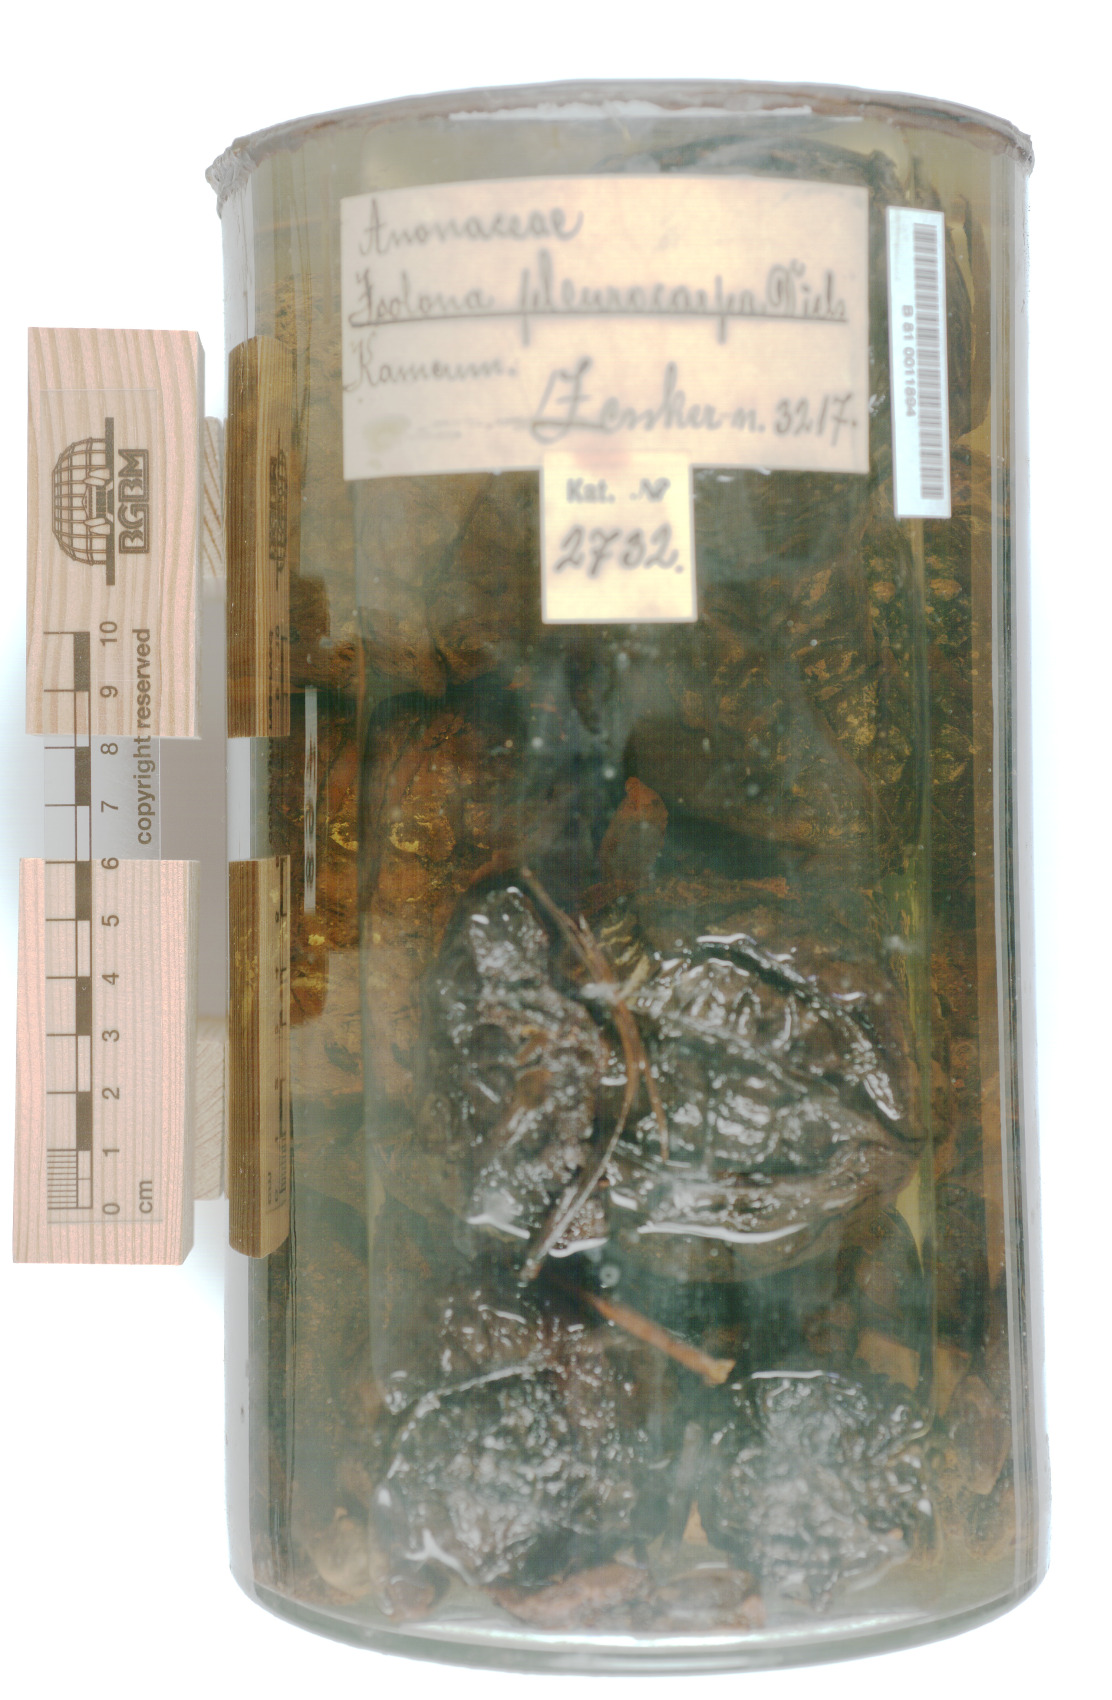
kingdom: Plantae
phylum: Tracheophyta
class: Magnoliopsida
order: Magnoliales
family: Annonaceae
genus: Isolona
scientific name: Isolona hexaloba
